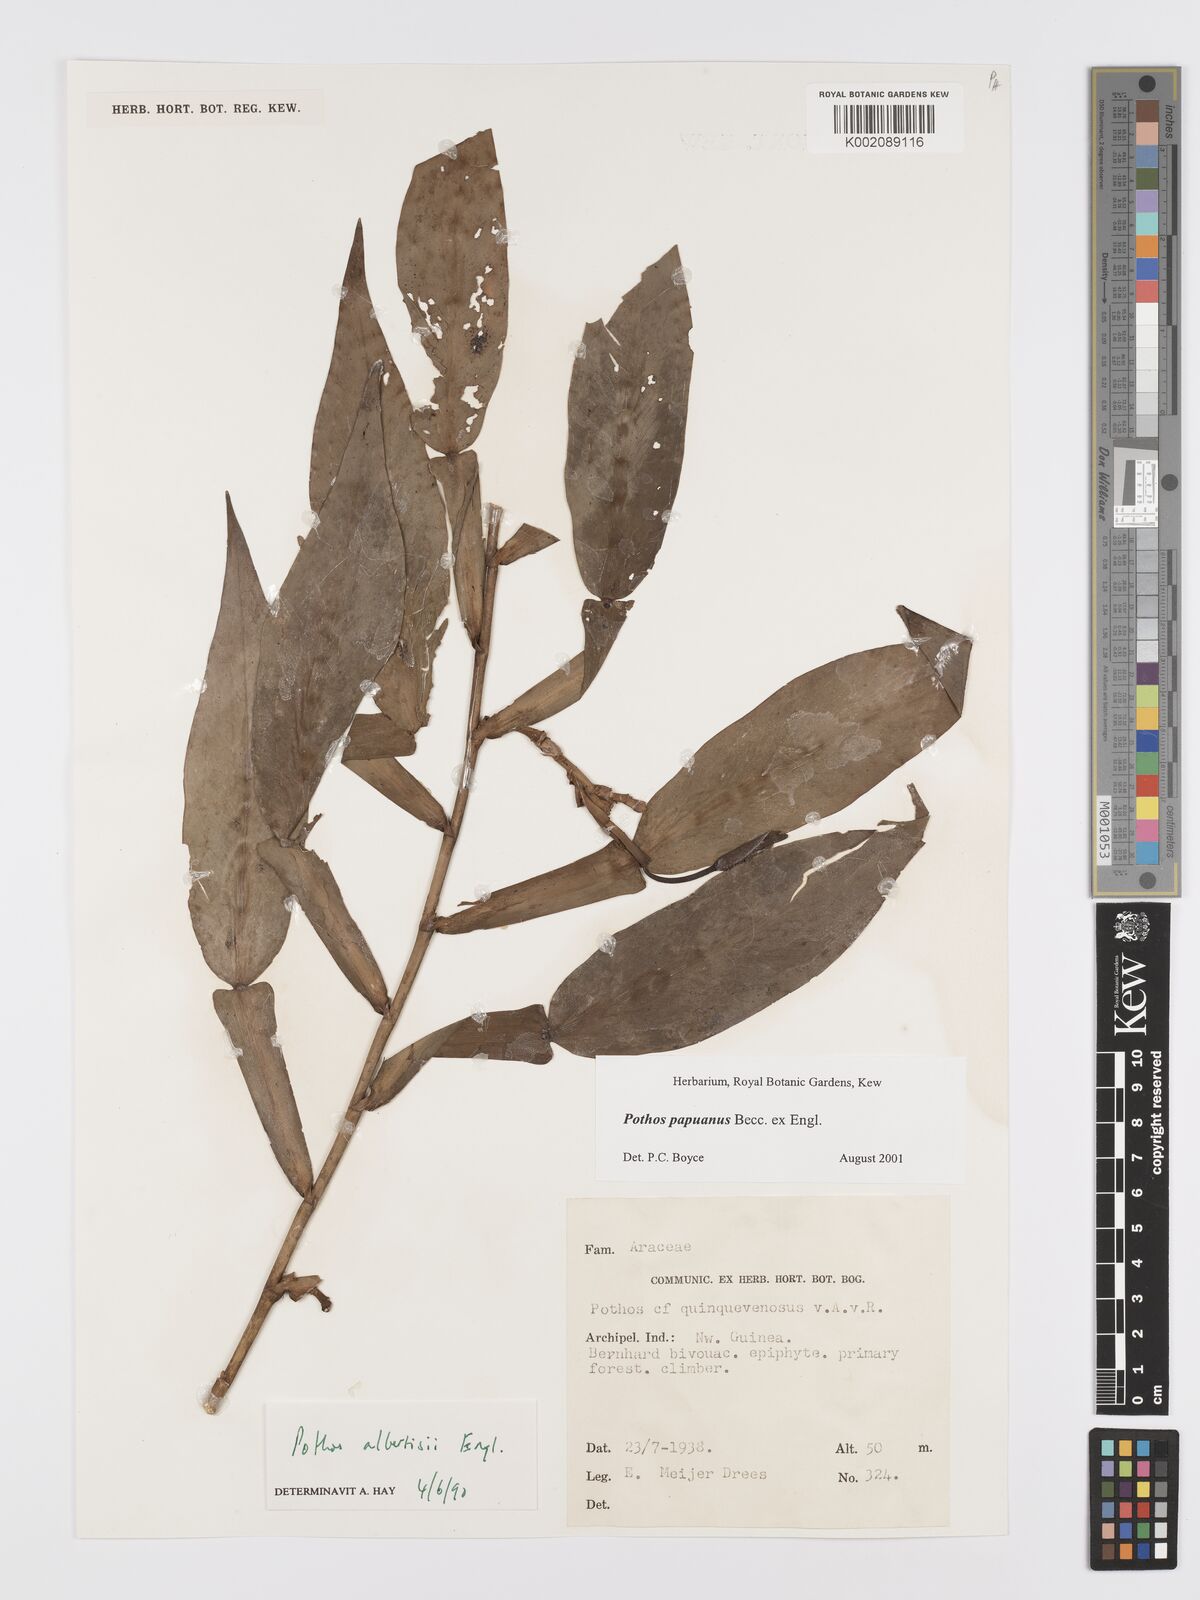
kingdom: Plantae
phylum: Tracheophyta
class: Liliopsida
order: Alismatales
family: Araceae
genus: Pothos
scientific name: Pothos papuanus
